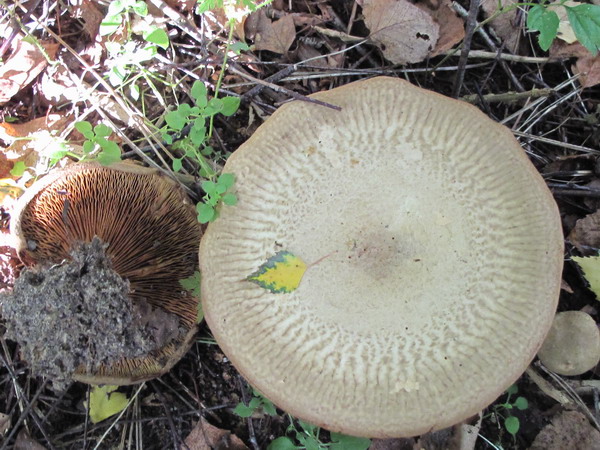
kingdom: Fungi
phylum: Basidiomycota
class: Agaricomycetes
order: Boletales
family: Paxillaceae
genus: Paxillus
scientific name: Paxillus obscurisporus
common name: mahognisporet netbladhat
